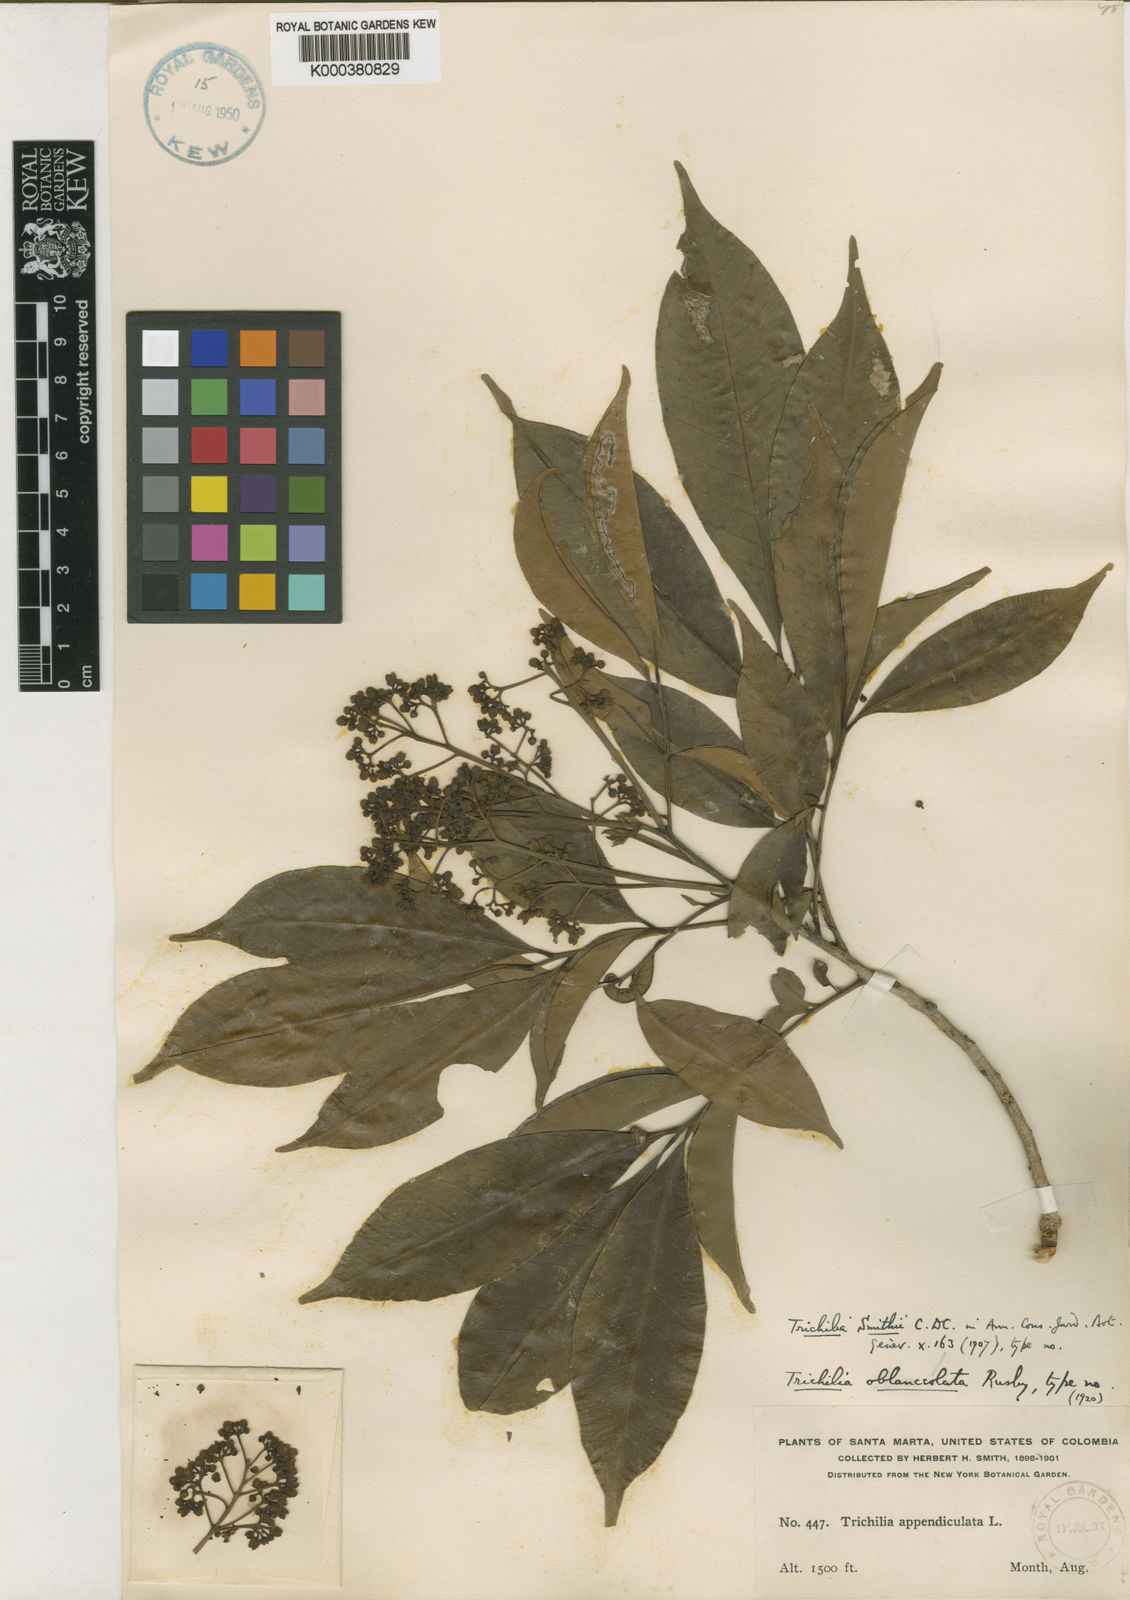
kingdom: Plantae
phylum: Tracheophyta
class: Magnoliopsida
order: Sapindales
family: Meliaceae
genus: Trichilia
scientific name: Trichilia pleeana
